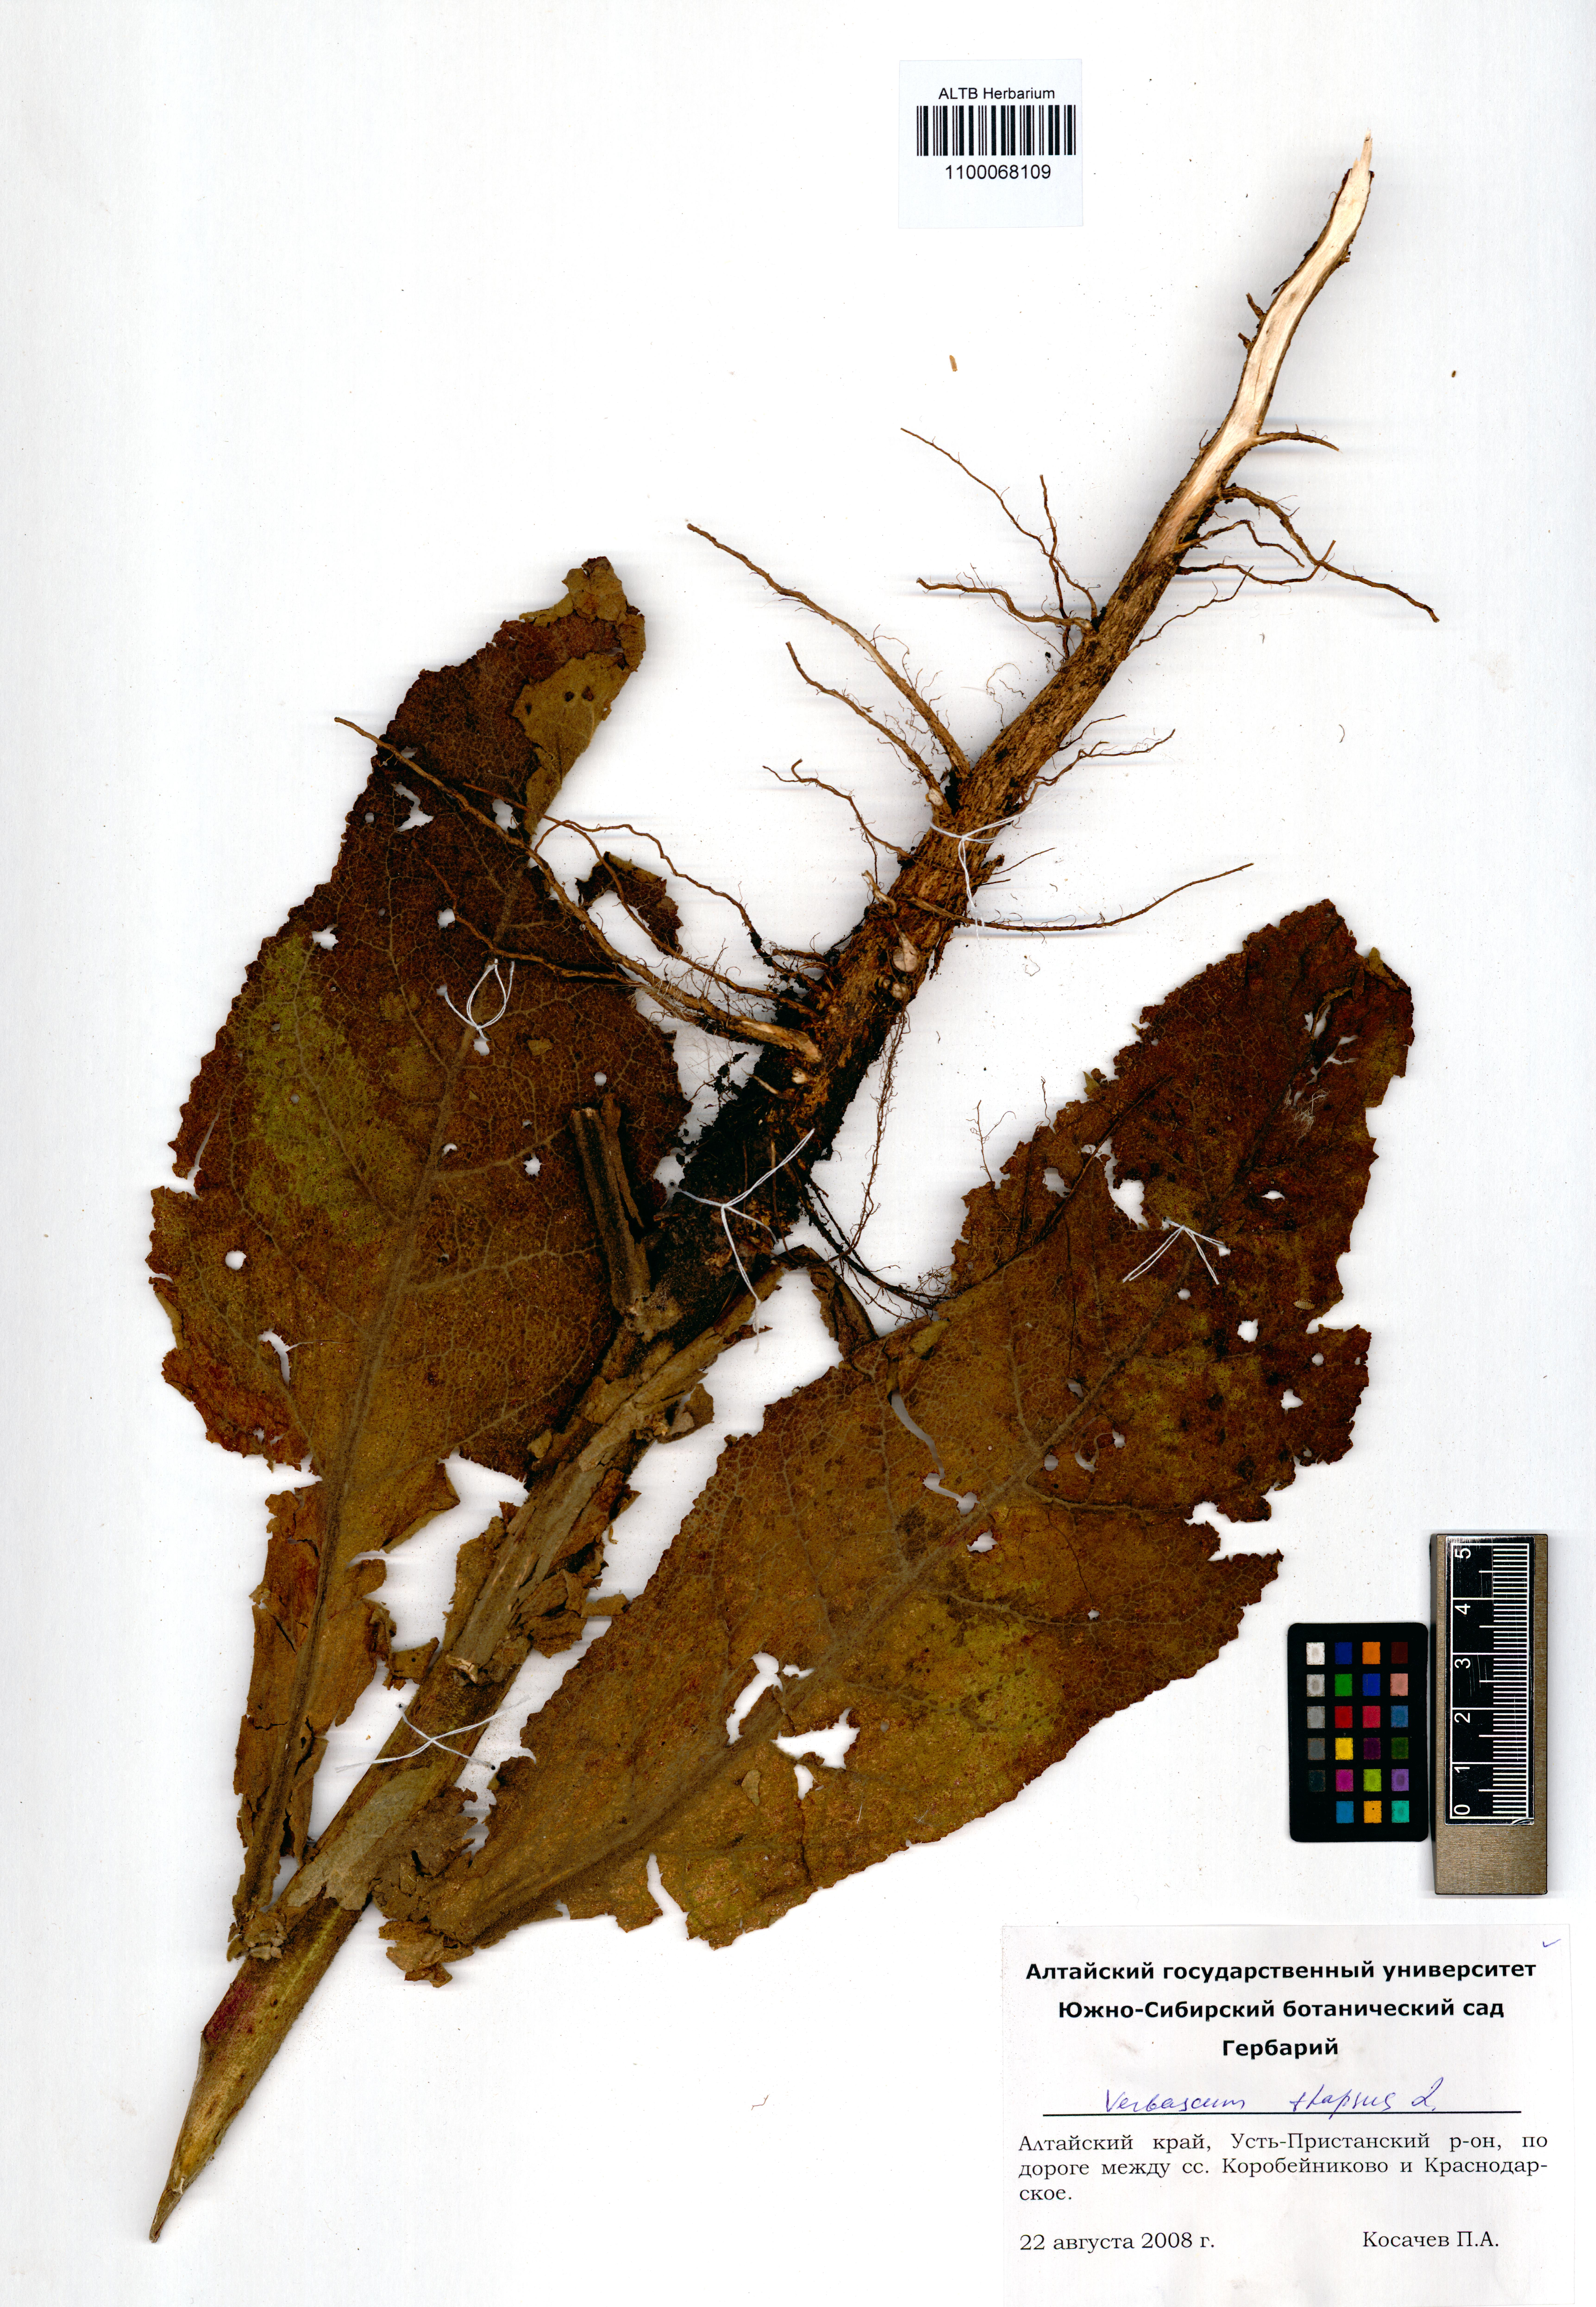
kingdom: Plantae
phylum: Tracheophyta
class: Magnoliopsida
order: Lamiales
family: Scrophulariaceae
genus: Verbascum
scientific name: Verbascum thapsus
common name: Common mullein
